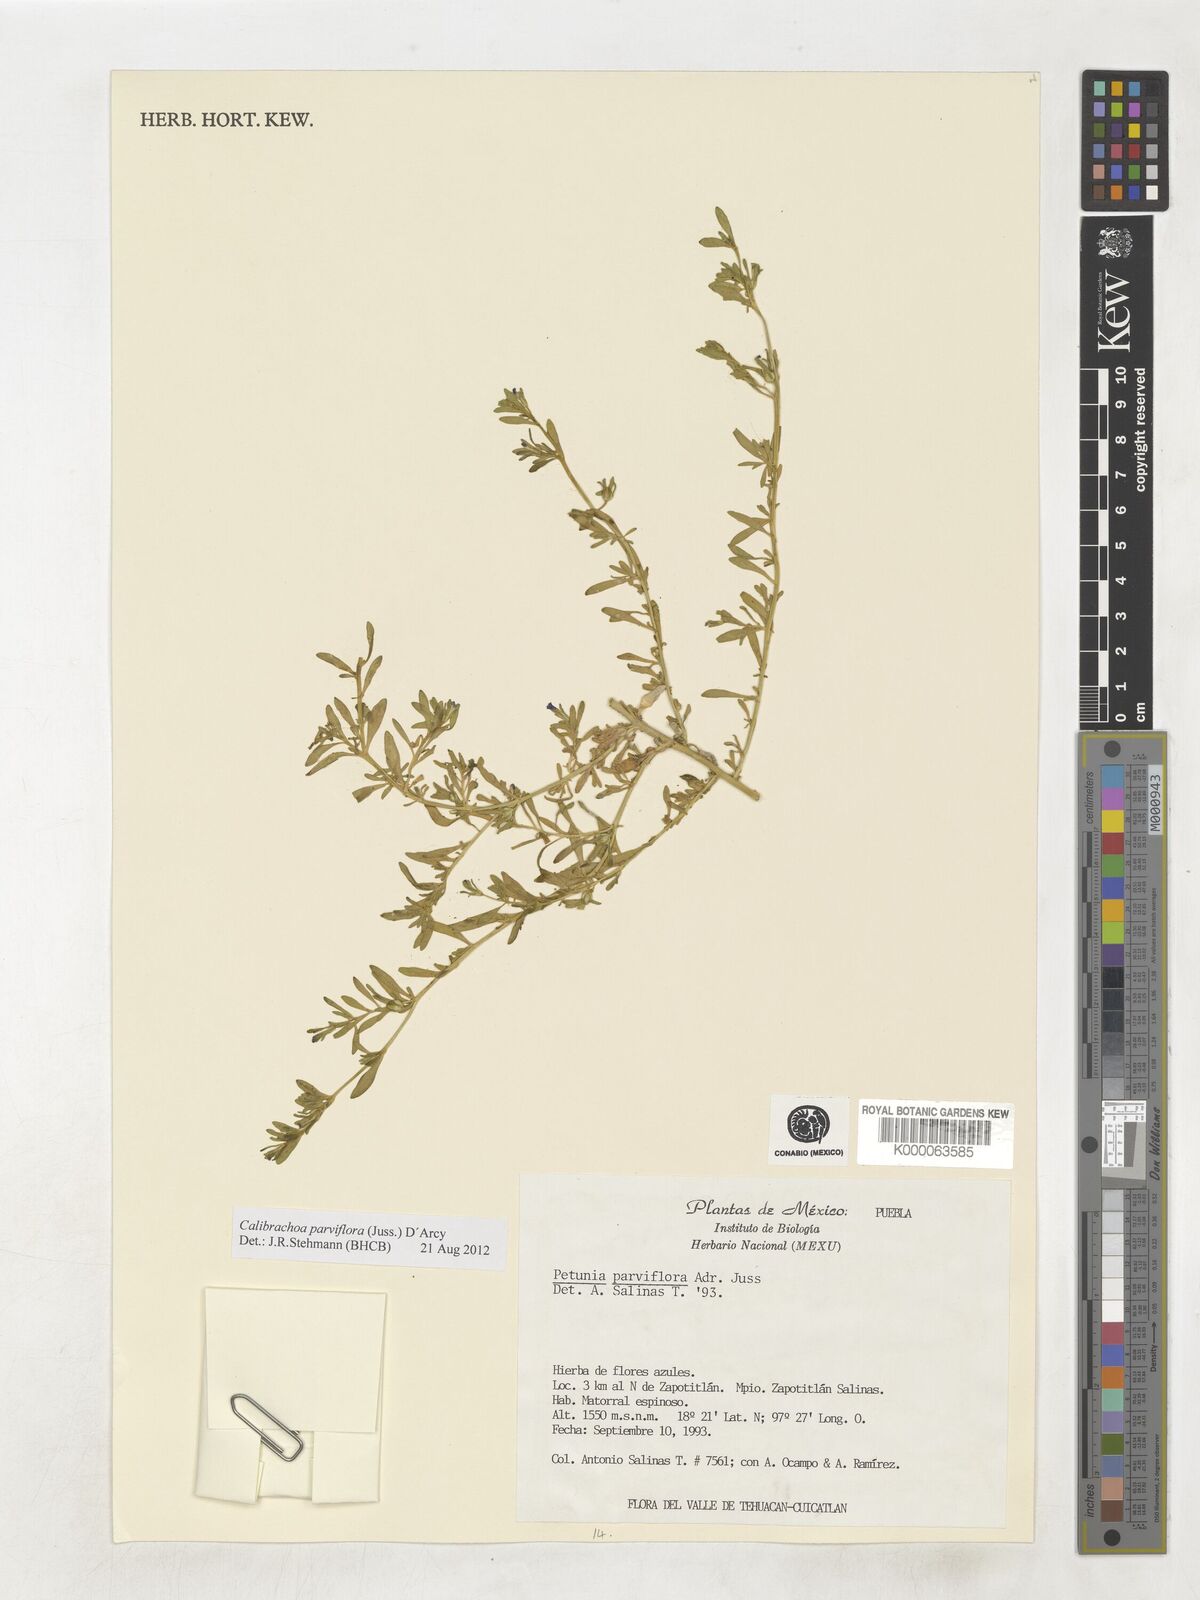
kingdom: Plantae
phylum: Tracheophyta
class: Magnoliopsida
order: Solanales
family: Solanaceae
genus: Calibrachoa
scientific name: Calibrachoa parviflora
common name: Seaside petunia
